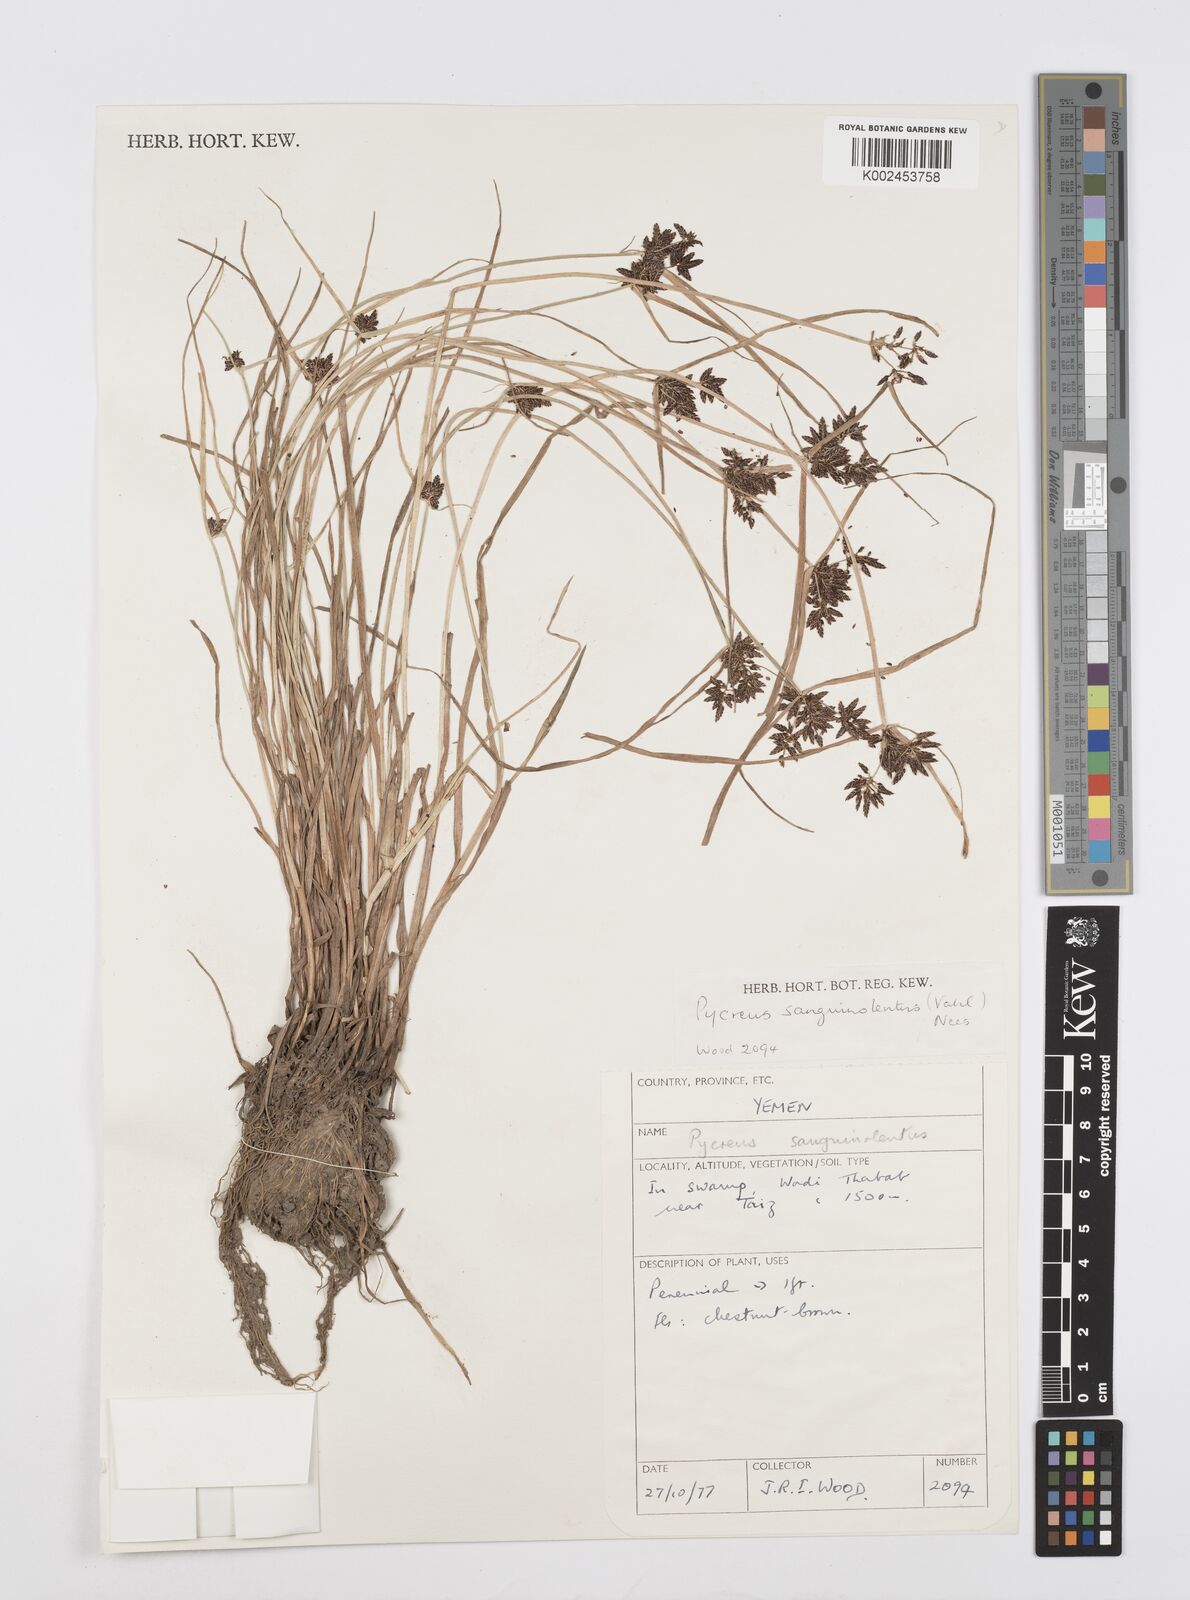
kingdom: Plantae
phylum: Tracheophyta
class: Liliopsida
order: Poales
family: Cyperaceae
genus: Cyperus
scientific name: Cyperus sanguinolentus
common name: Purpleglume flatsedge
